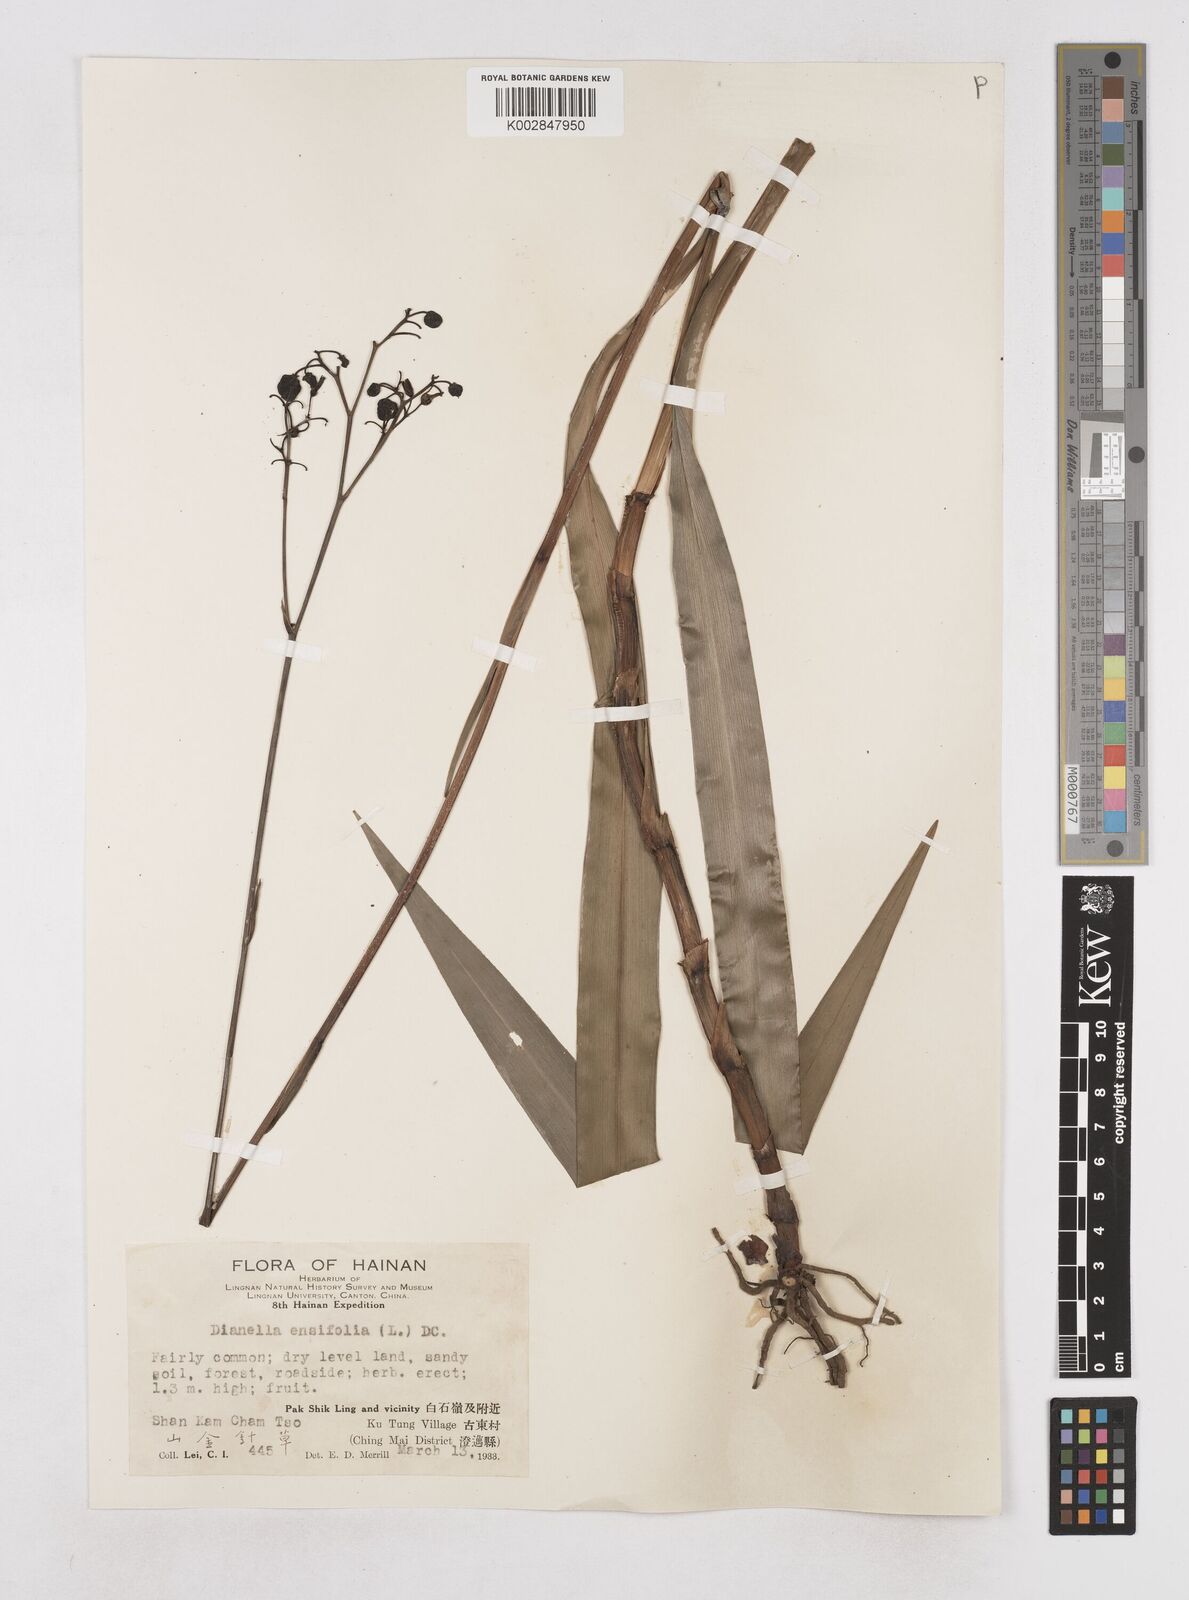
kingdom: Plantae
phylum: Tracheophyta
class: Liliopsida
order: Asparagales
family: Asphodelaceae
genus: Dianella
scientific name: Dianella ensifolia
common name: New zealand lilyplant
